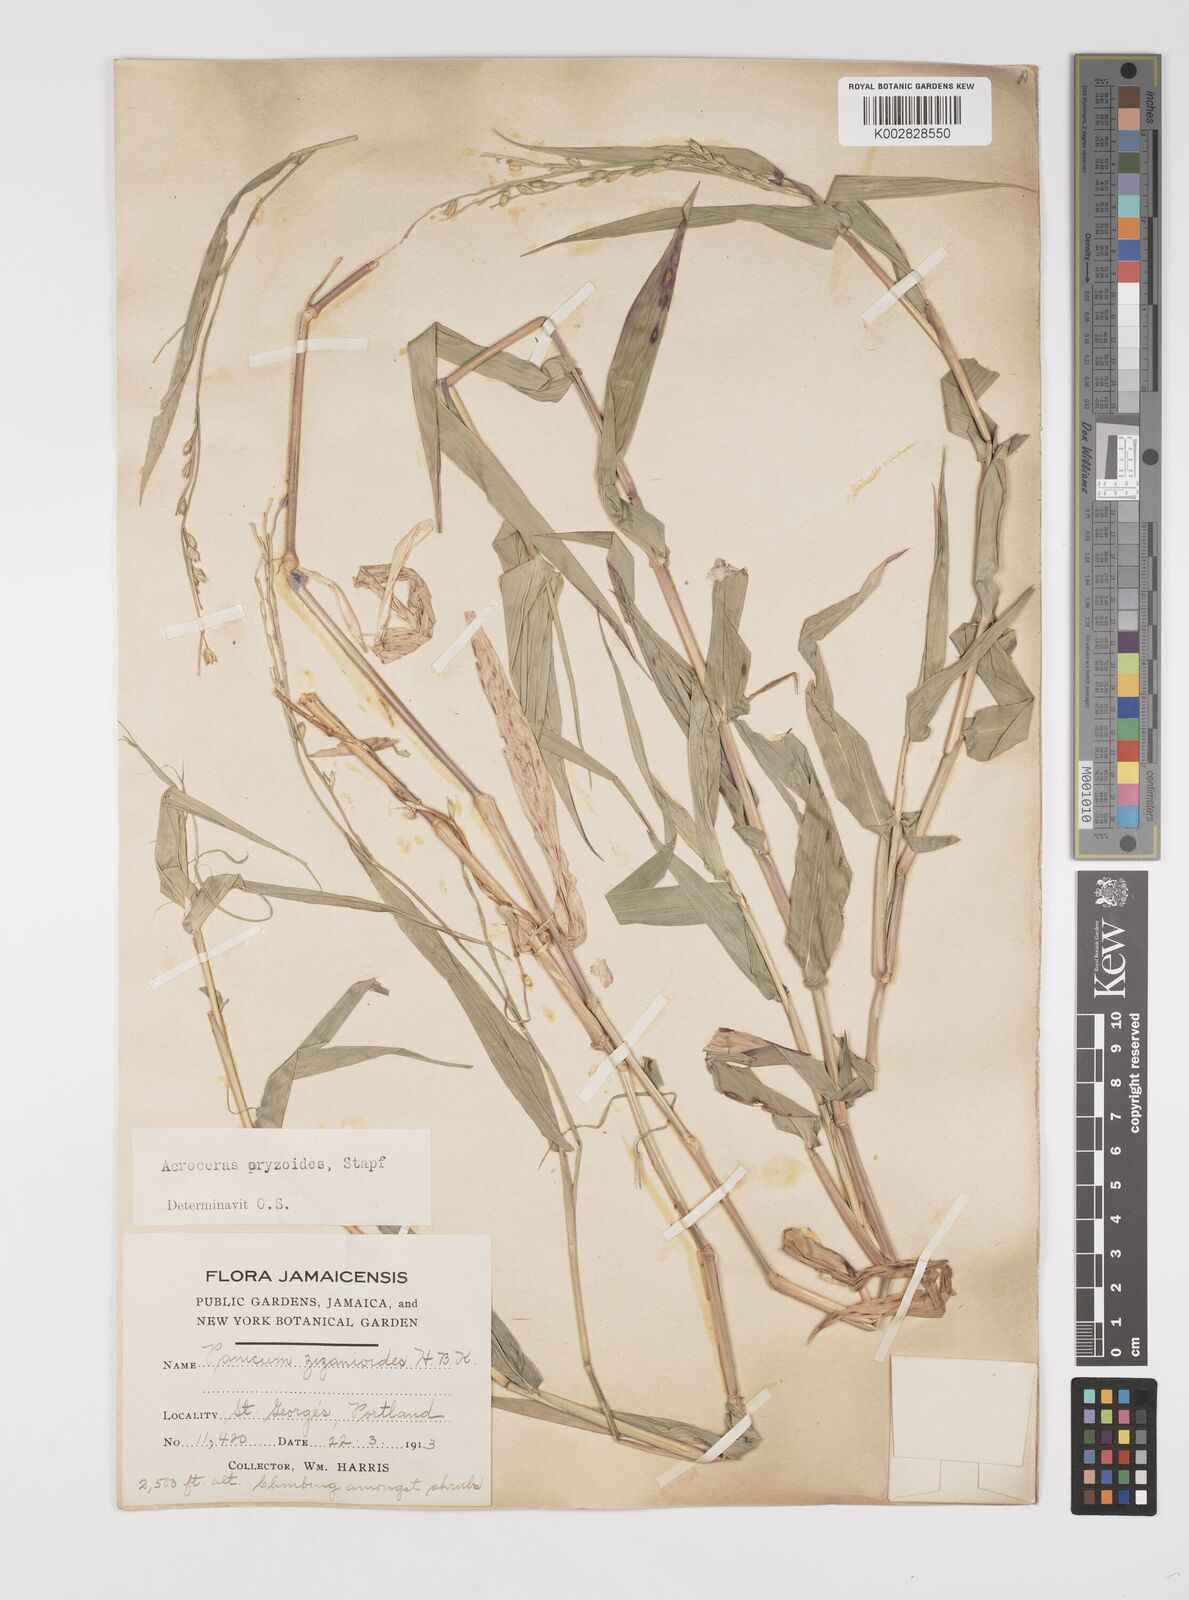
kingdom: Plantae
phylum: Tracheophyta
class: Liliopsida
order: Poales
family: Poaceae
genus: Acroceras
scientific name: Acroceras zizanioides
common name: Oat grass
